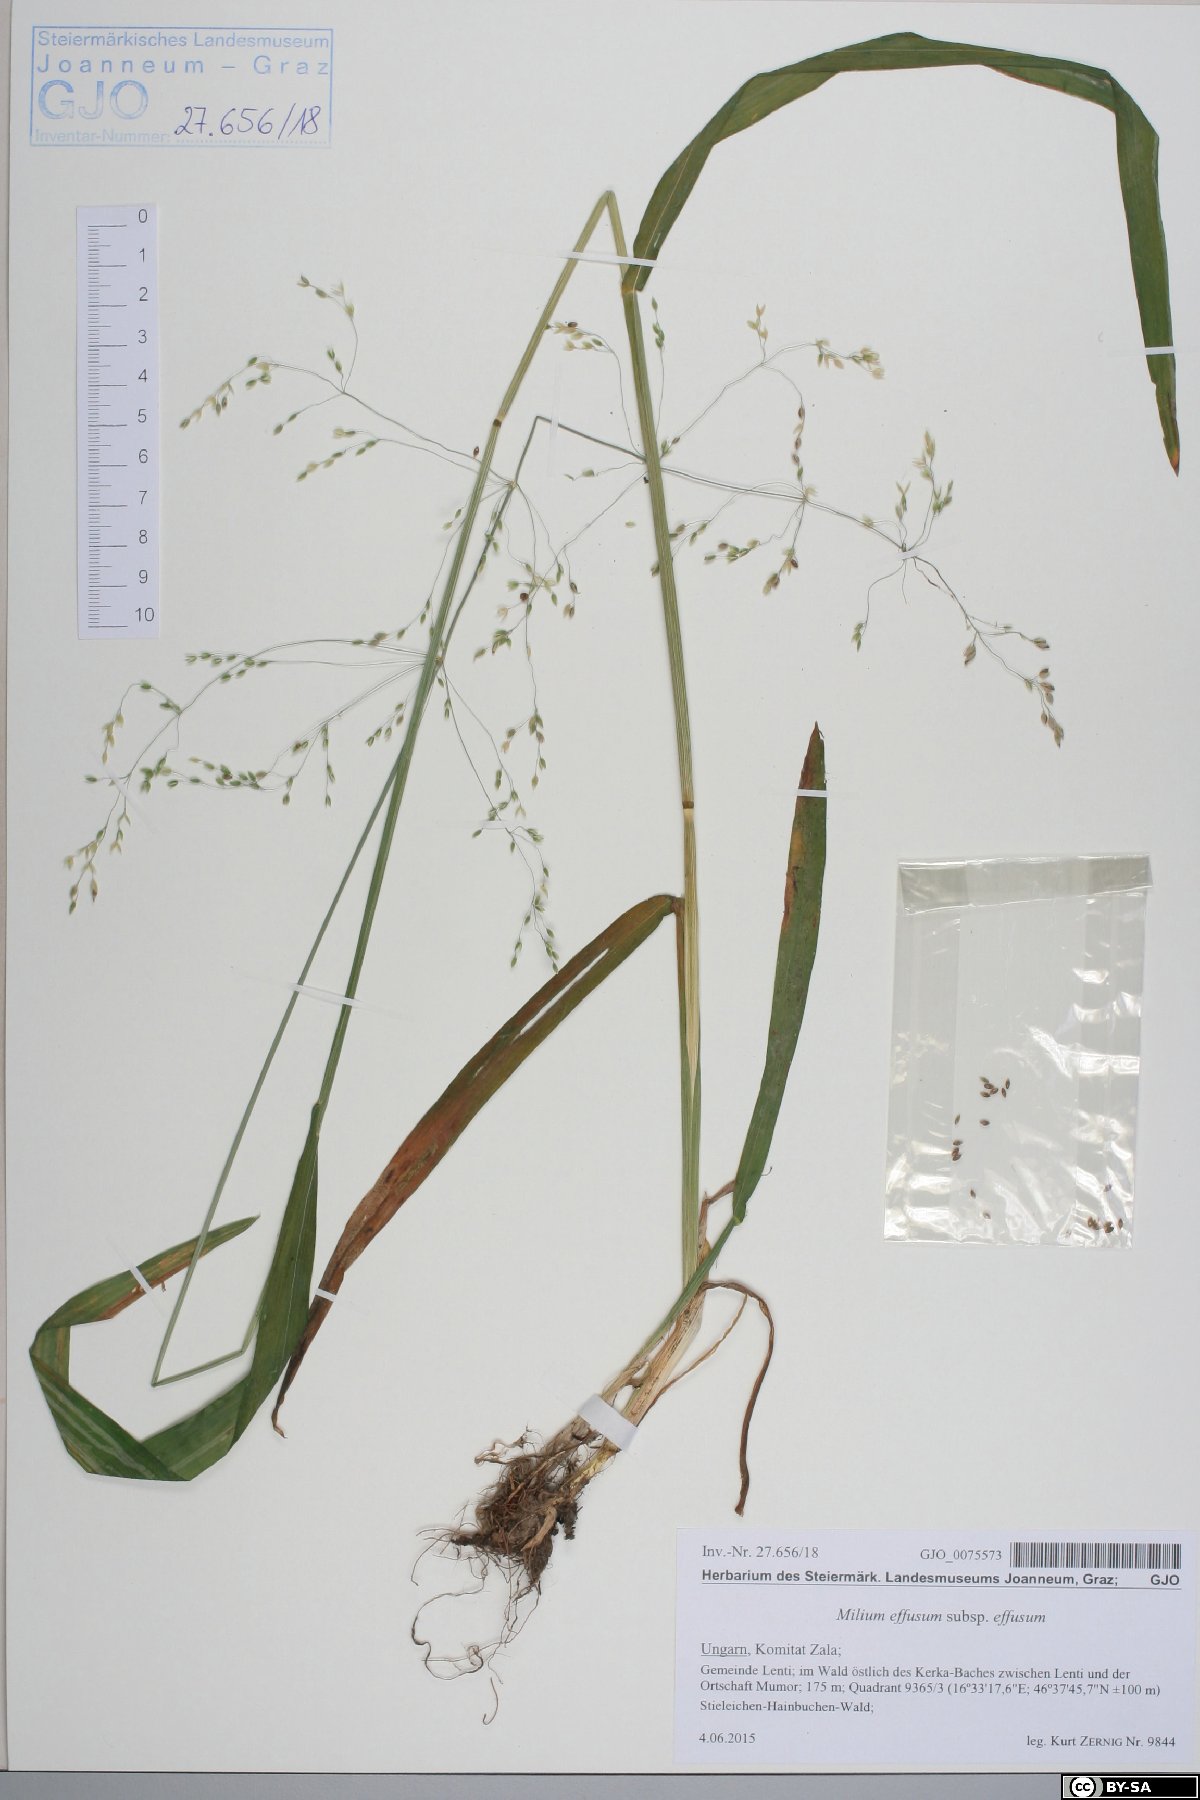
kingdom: Plantae
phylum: Tracheophyta
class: Liliopsida
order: Poales
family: Poaceae
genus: Milium
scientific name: Milium effusum
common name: Wood millet
